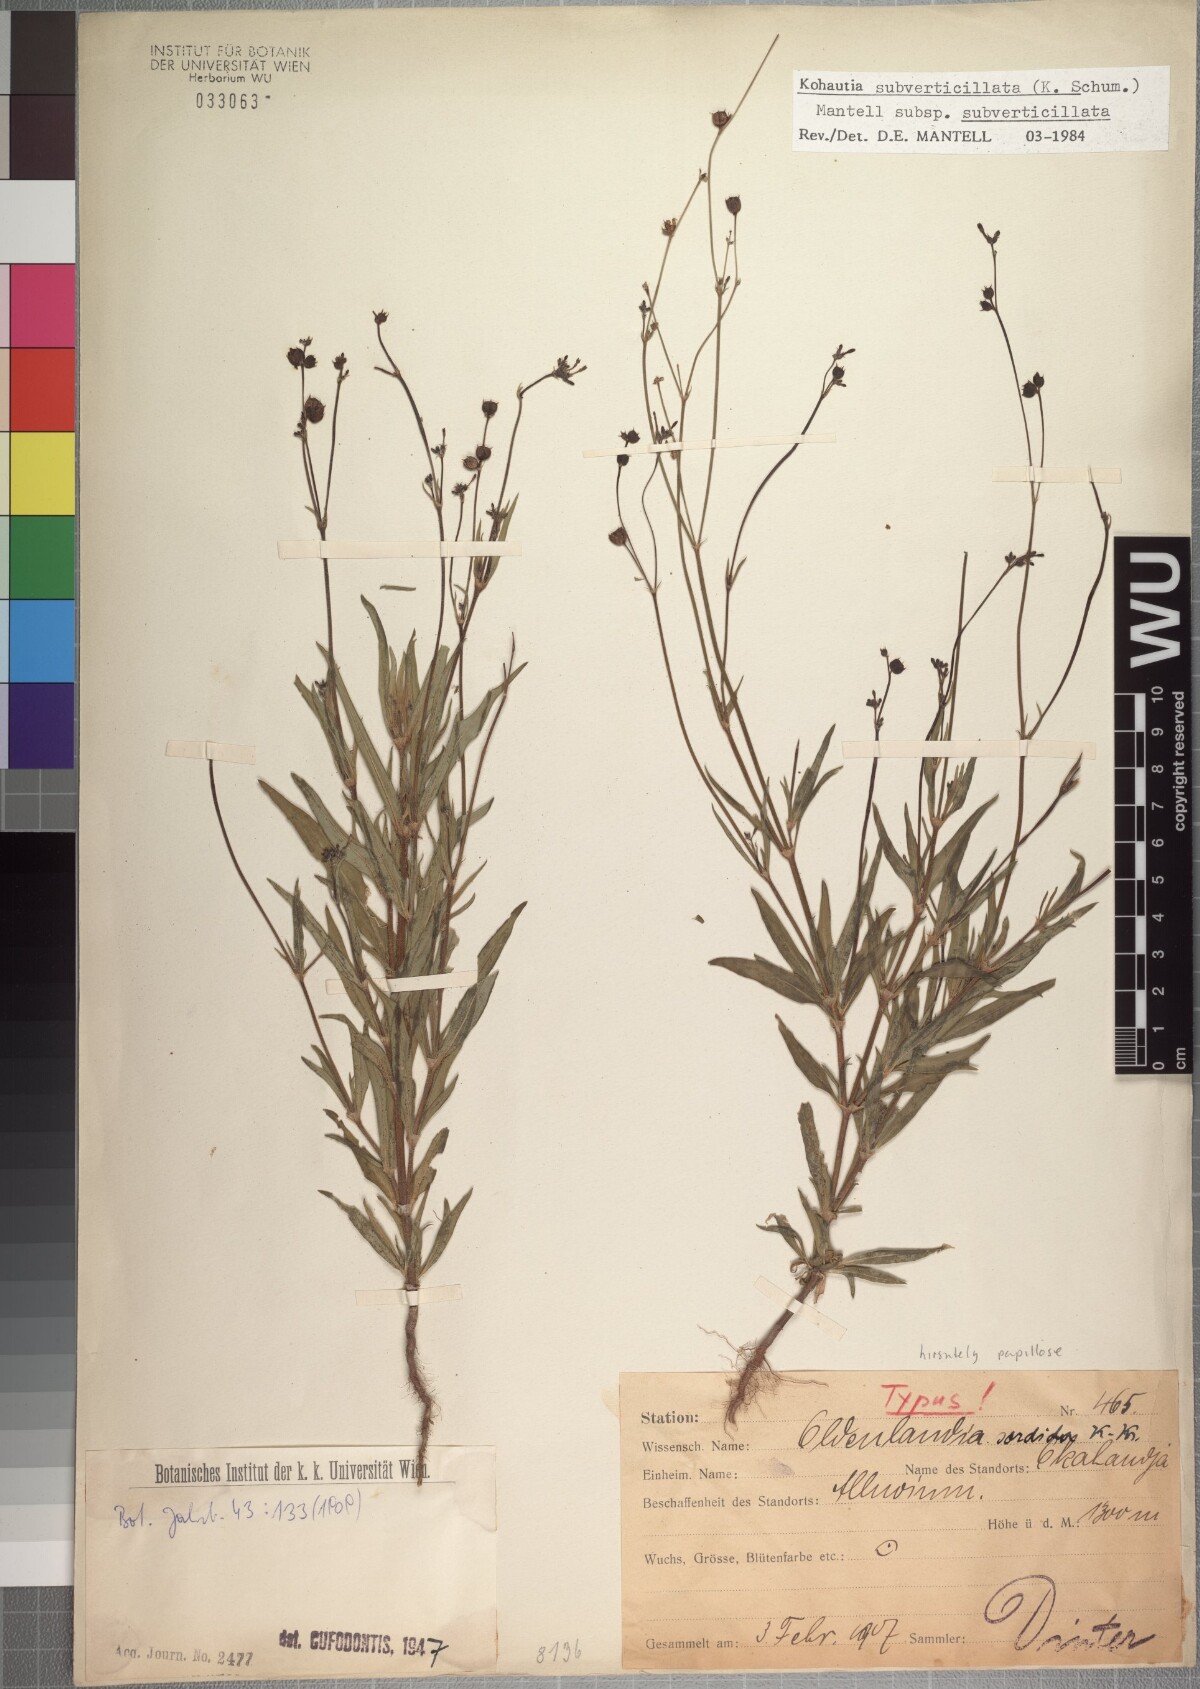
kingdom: Plantae
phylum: Tracheophyta
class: Magnoliopsida
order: Gentianales
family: Rubiaceae
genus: Kohautia
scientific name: Kohautia subverticillata
